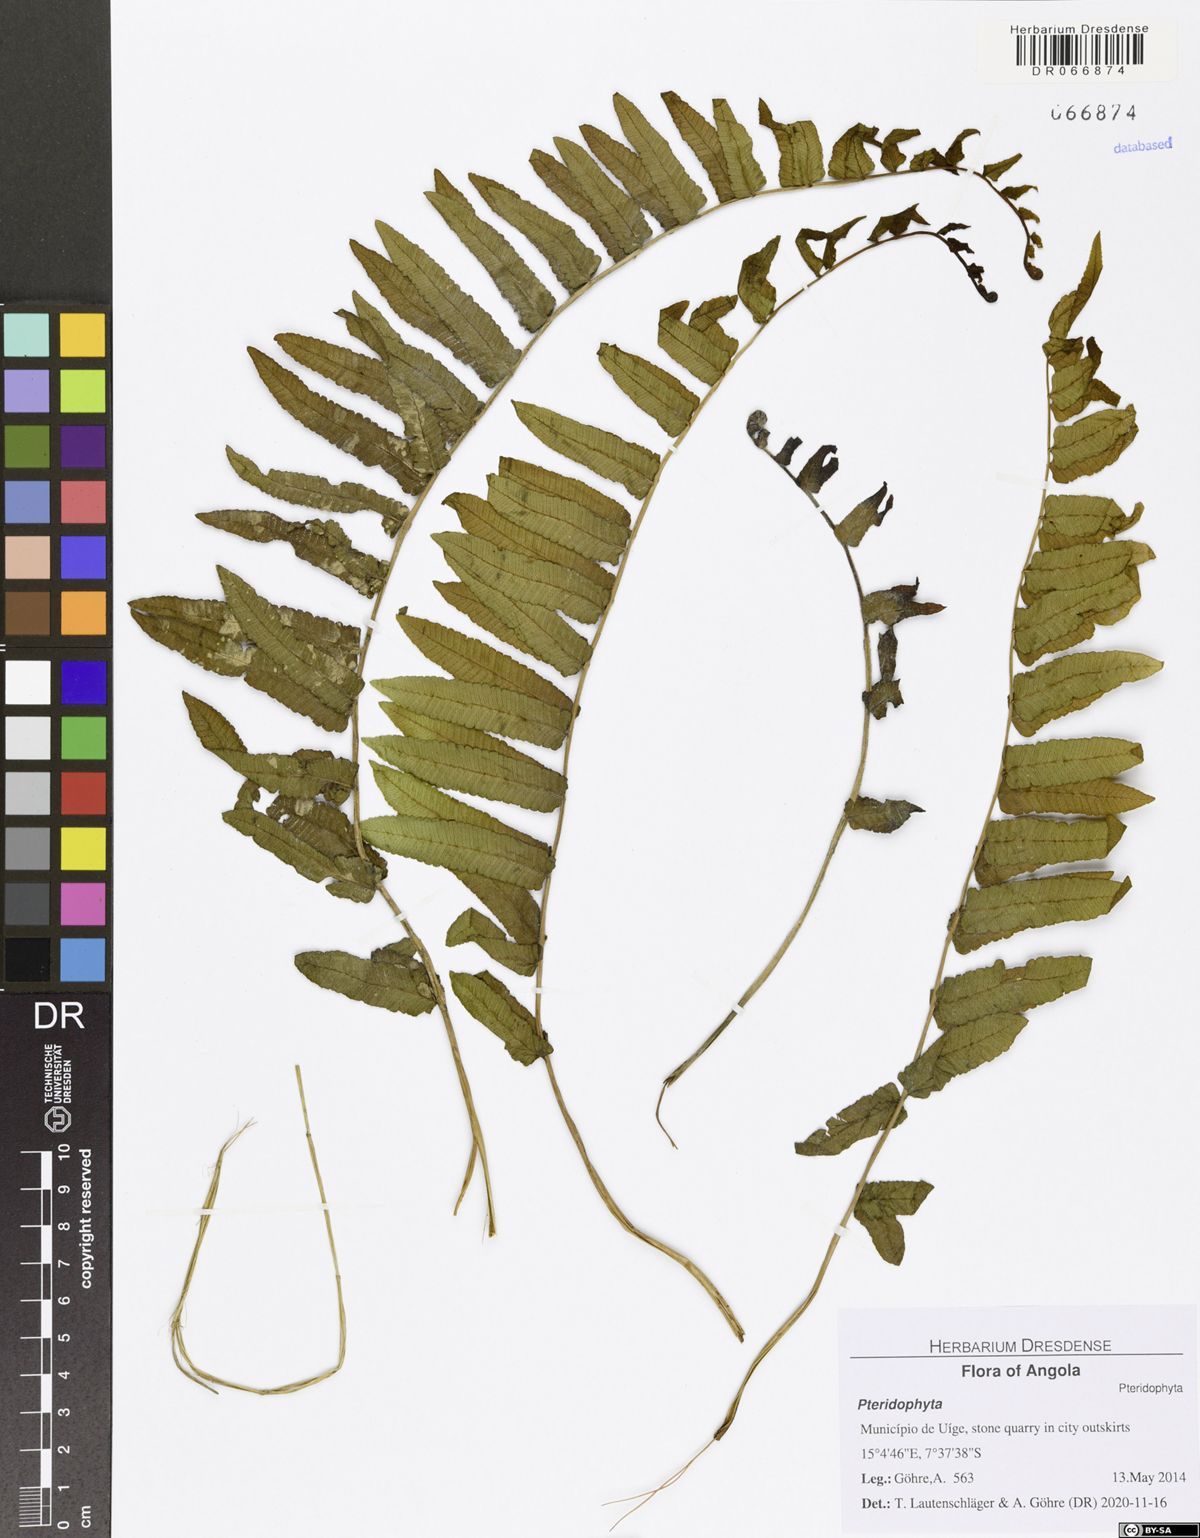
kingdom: Plantae
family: Pteridophyta
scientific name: Pteridophyta
